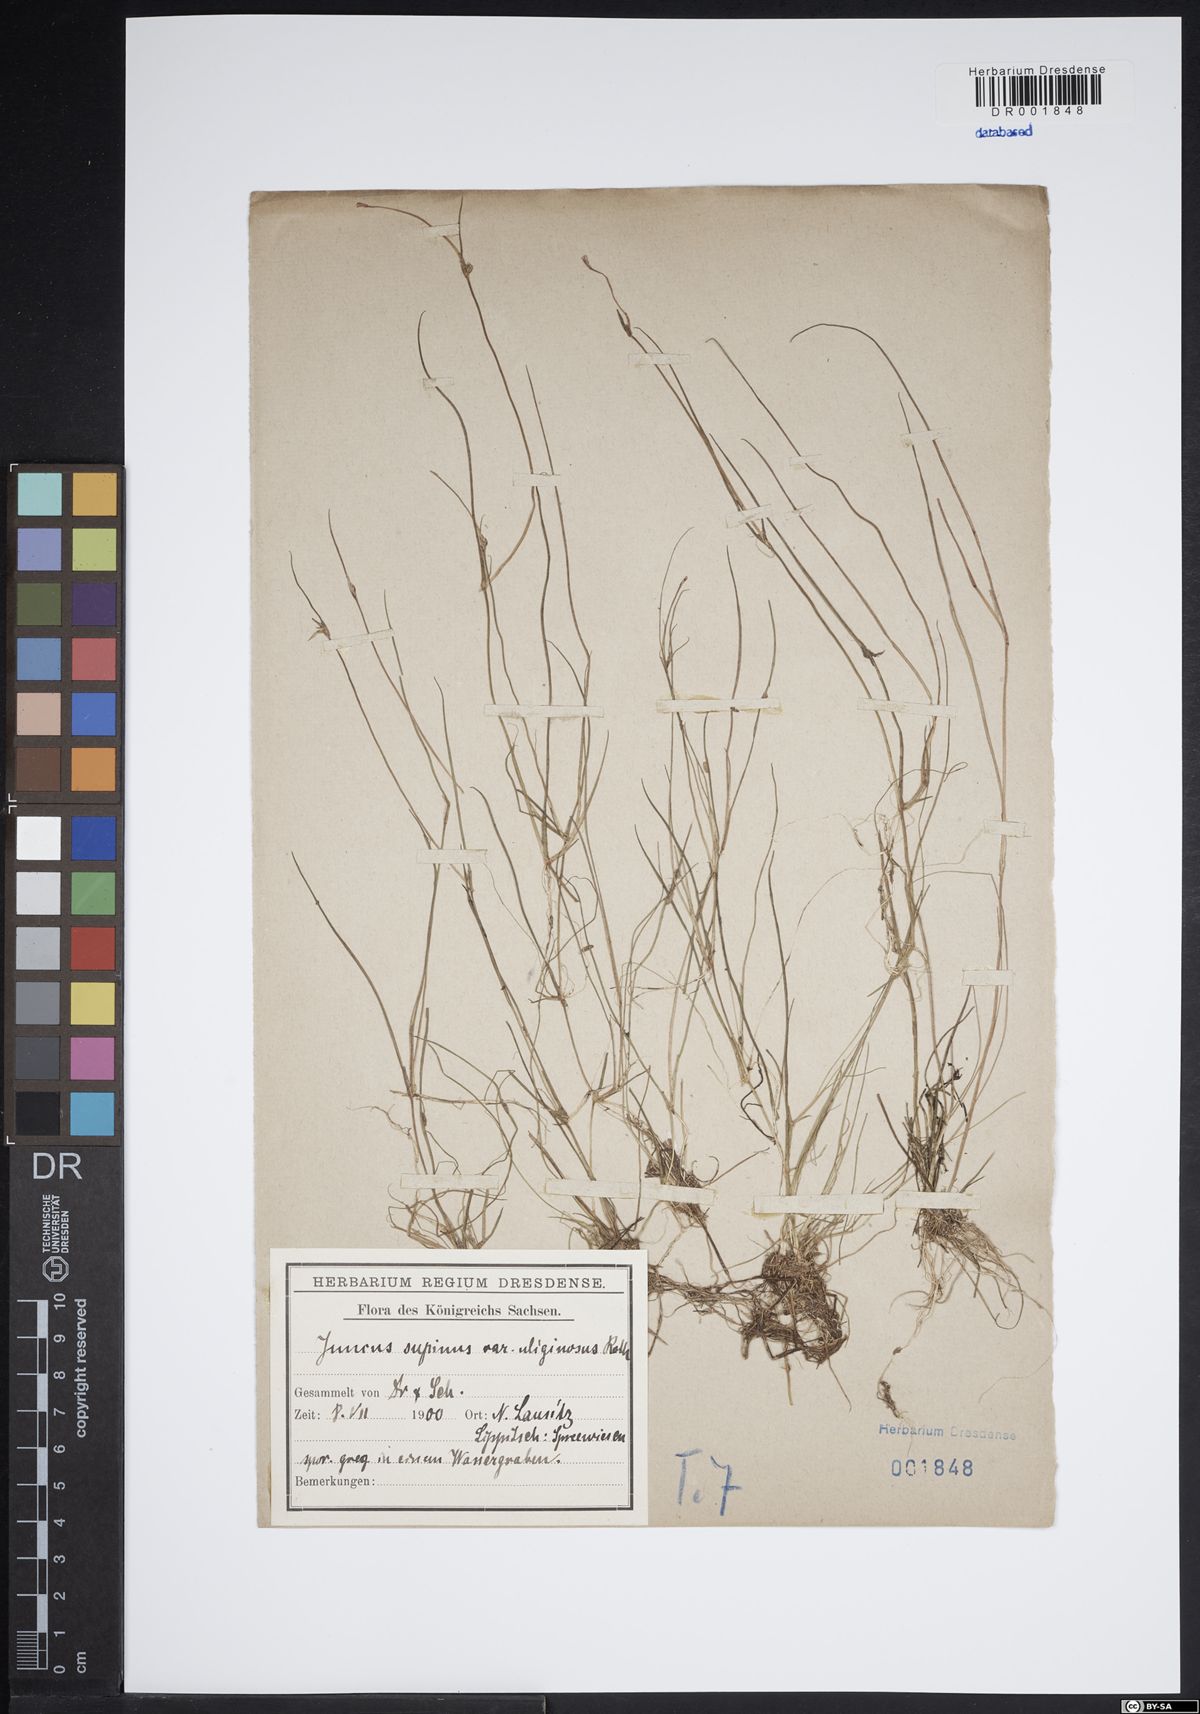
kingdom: Plantae
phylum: Tracheophyta
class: Liliopsida
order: Poales
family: Juncaceae
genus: Juncus
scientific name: Juncus bulbosus
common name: Bulbous rush
